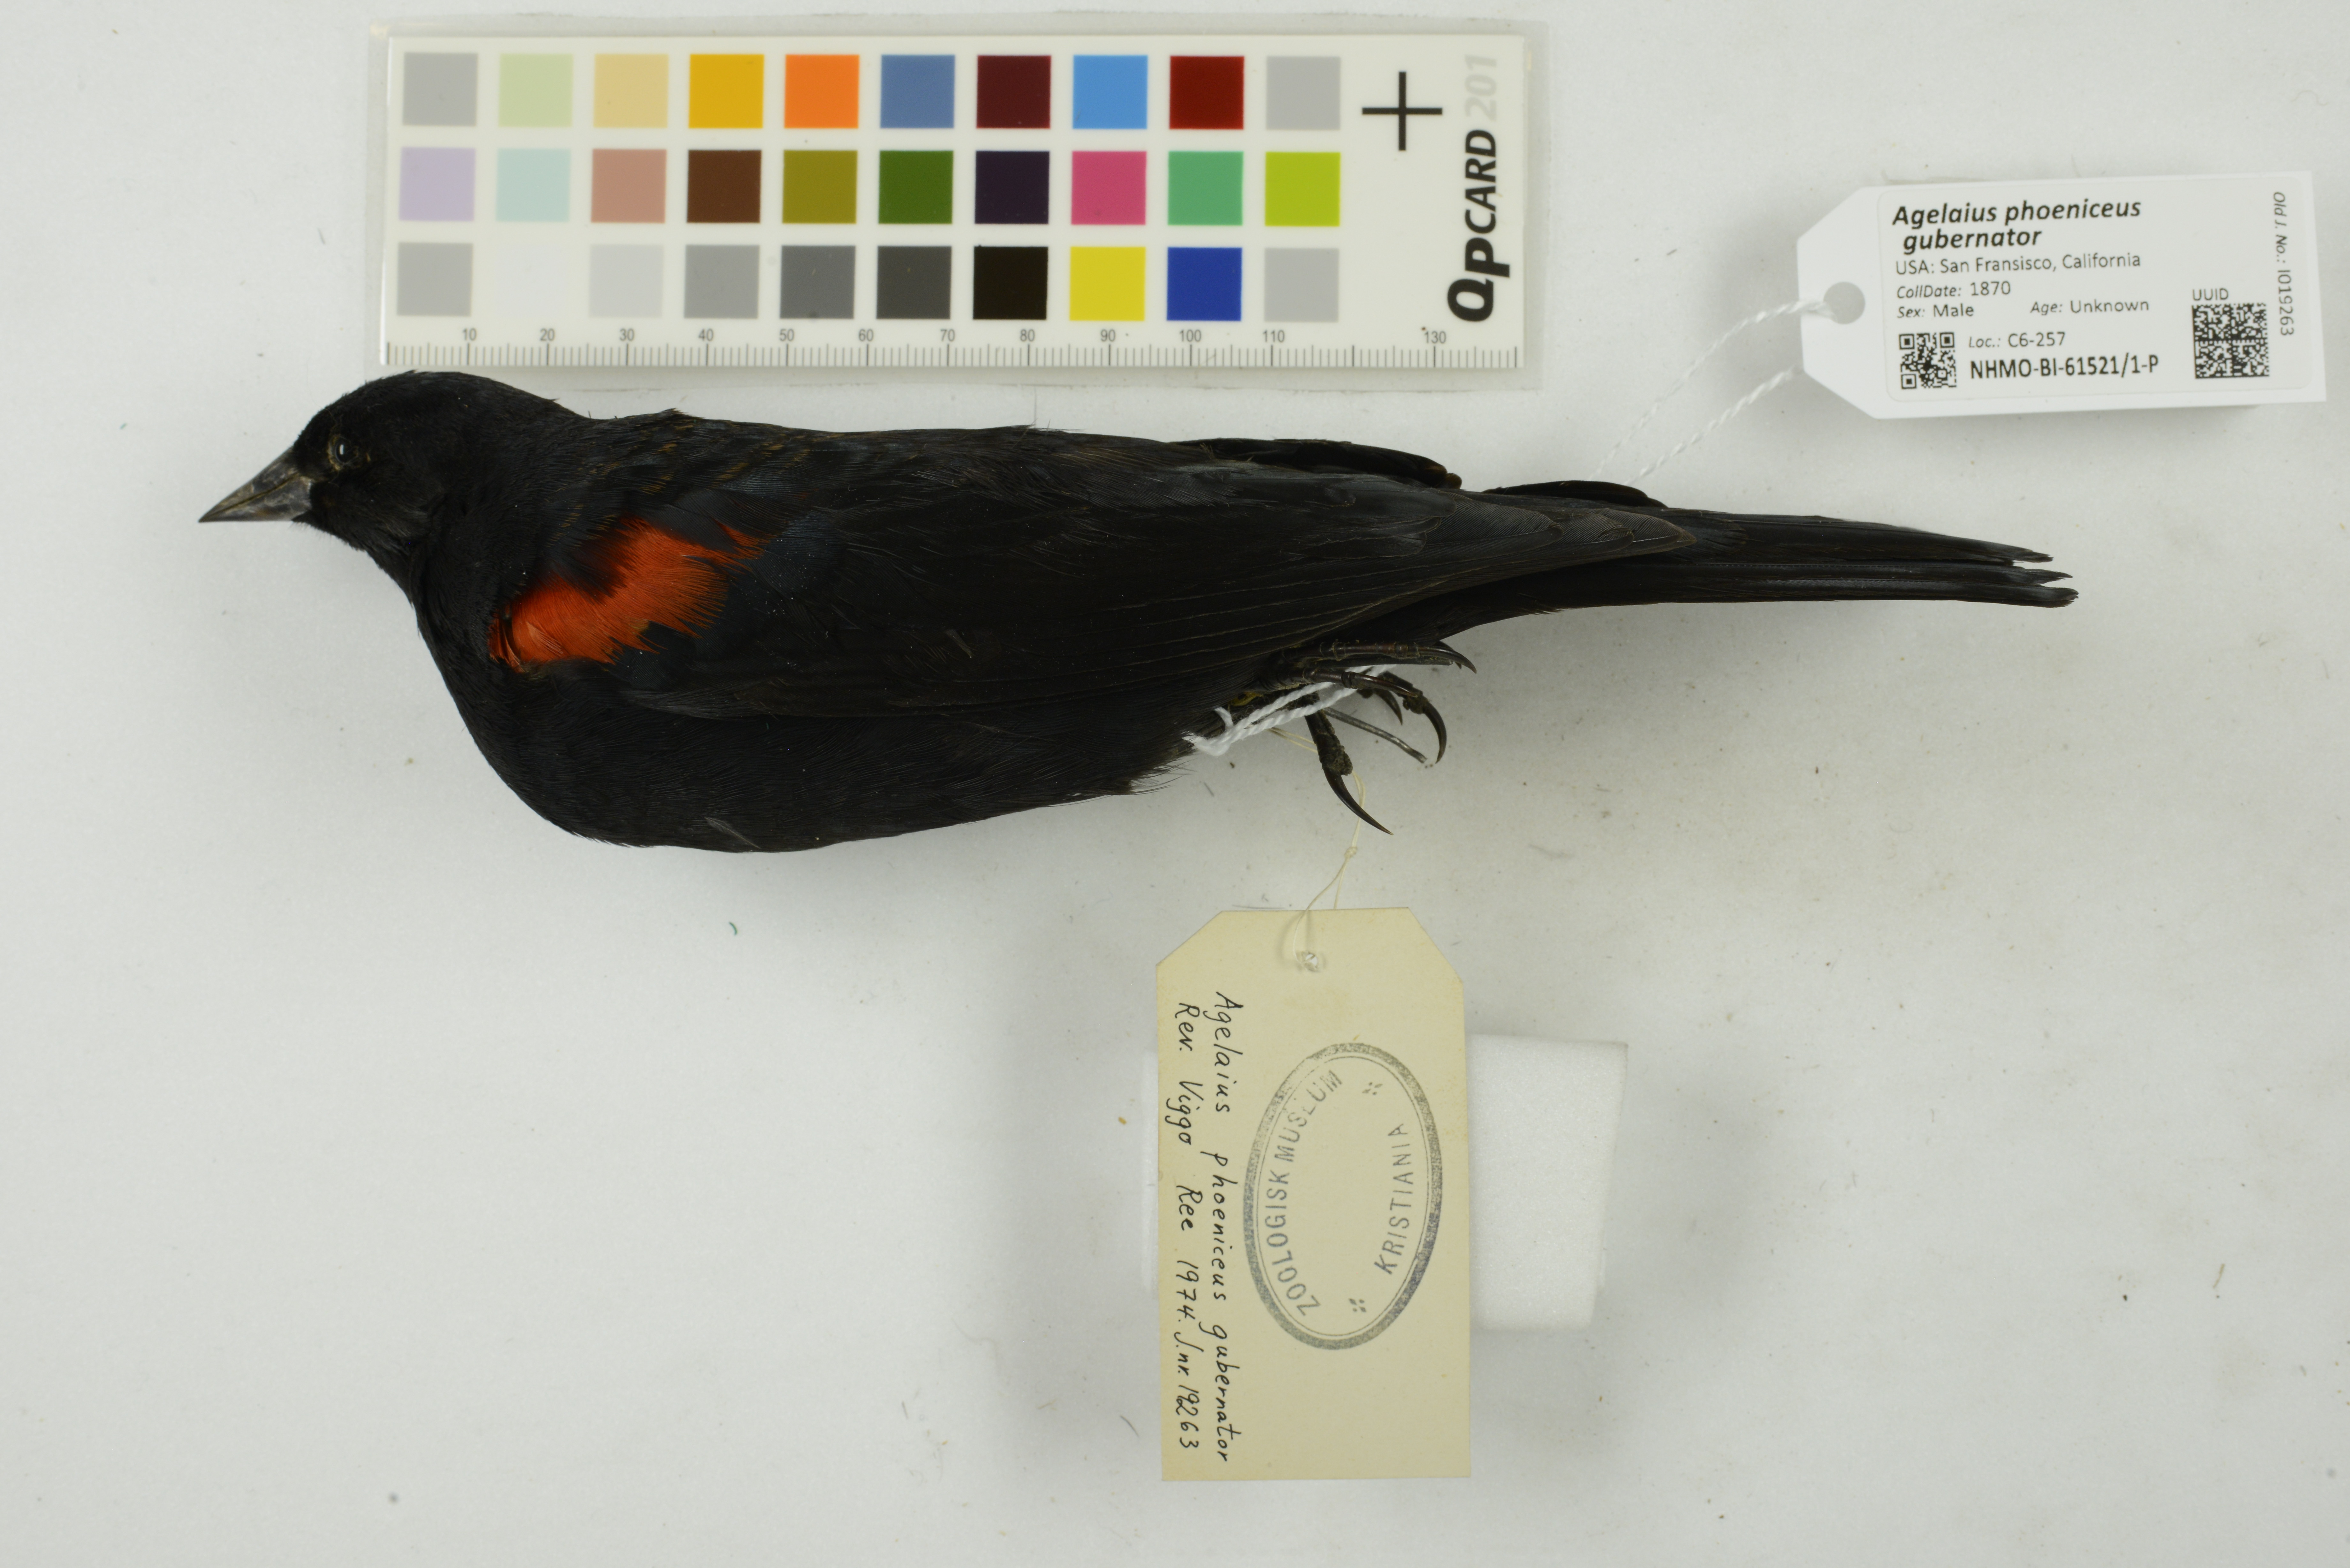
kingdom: Animalia
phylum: Chordata
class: Aves
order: Passeriformes
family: Icteridae
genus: Agelaius
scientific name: Agelaius phoeniceus
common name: Red-winged blackbird
